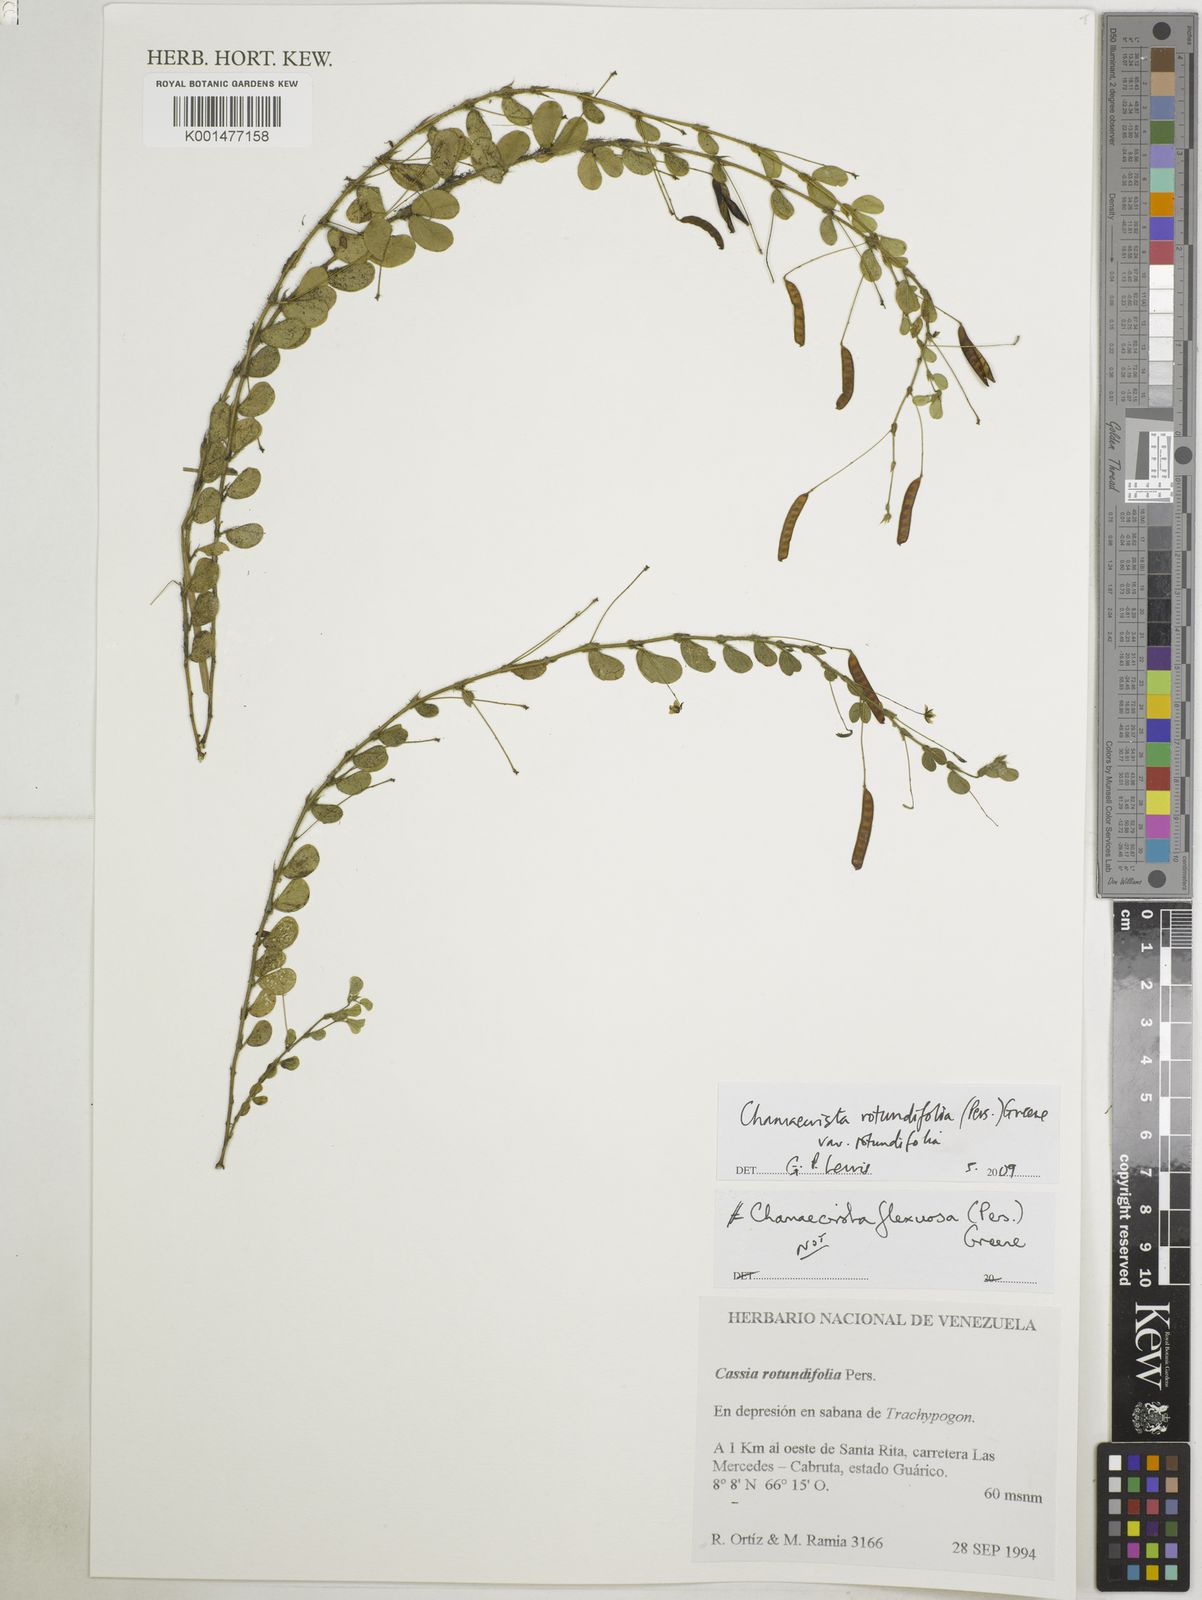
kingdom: Plantae
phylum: Tracheophyta
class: Magnoliopsida
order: Fabales
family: Fabaceae
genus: Chamaecrista
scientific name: Chamaecrista rotundifolia
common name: Round-leaf cassia
